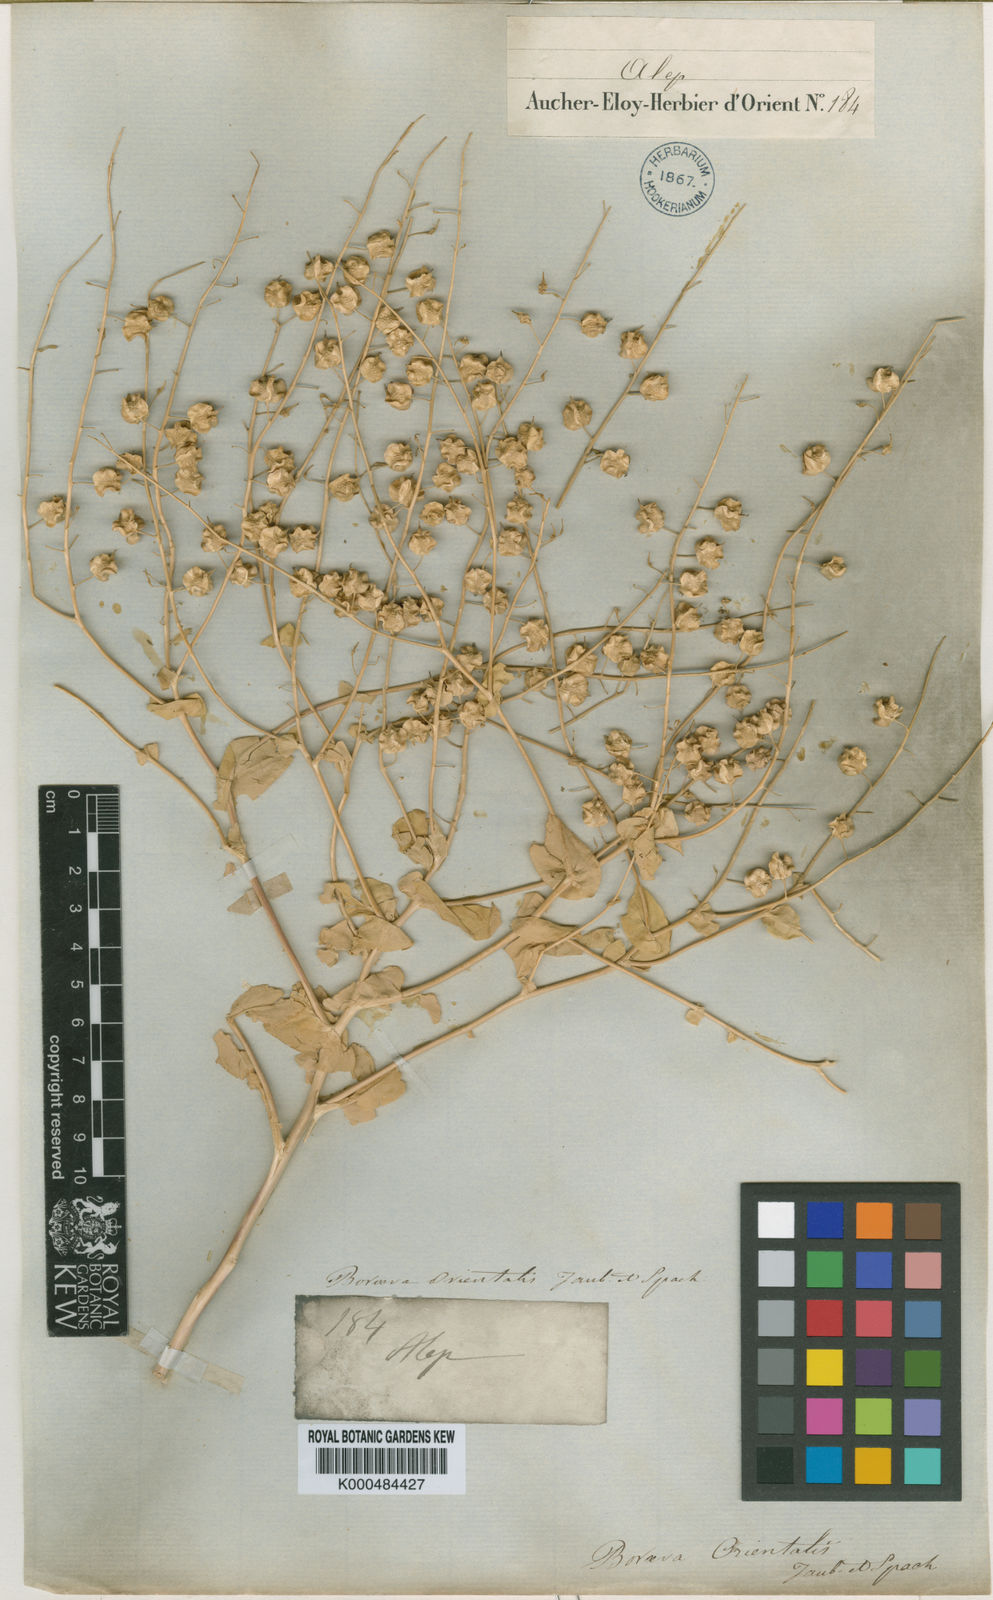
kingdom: Plantae
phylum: Tracheophyta
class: Magnoliopsida
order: Brassicales
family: Brassicaceae
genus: Isatis
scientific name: Isatis quadrialata
